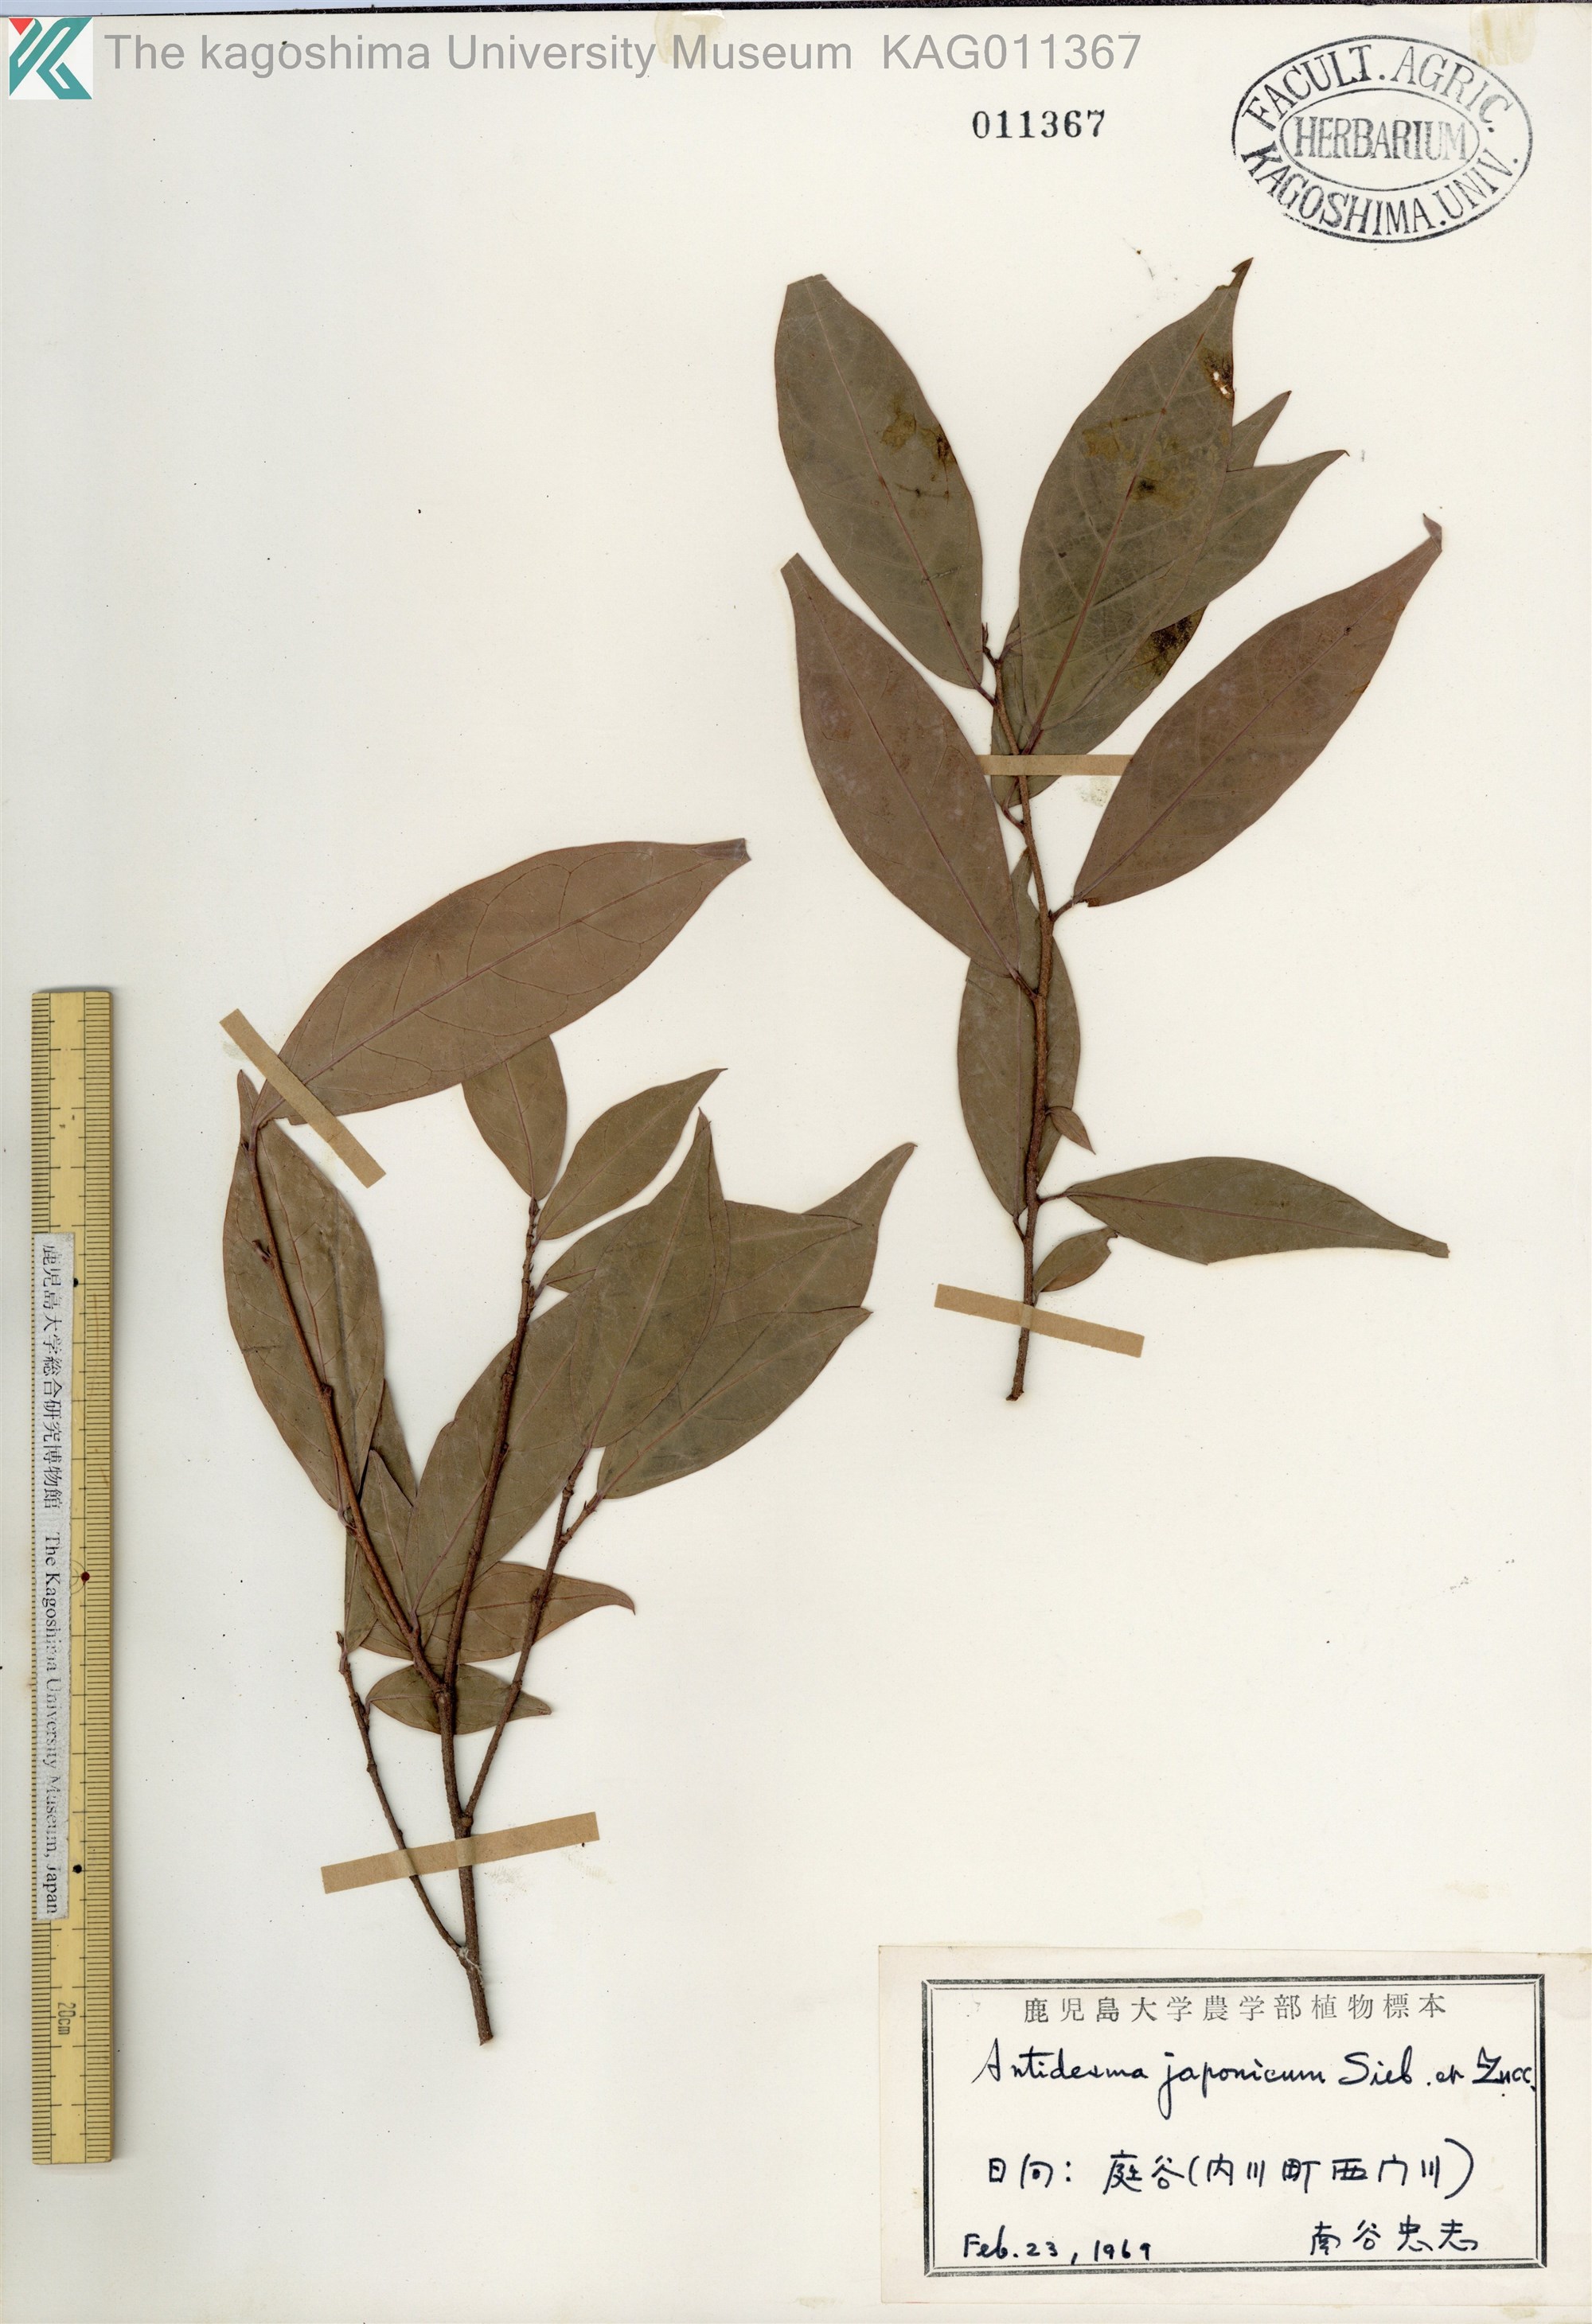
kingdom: Plantae
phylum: Tracheophyta
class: Magnoliopsida
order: Malpighiales
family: Phyllanthaceae
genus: Antidesma
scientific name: Antidesma japonicum
